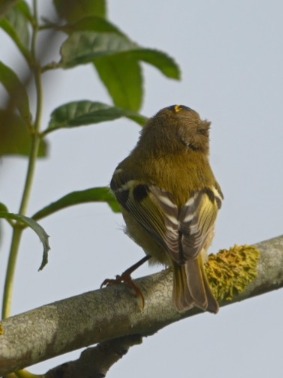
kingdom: Animalia
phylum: Chordata
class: Aves
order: Passeriformes
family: Regulidae
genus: Regulus
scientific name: Regulus regulus
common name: Fuglekonge
